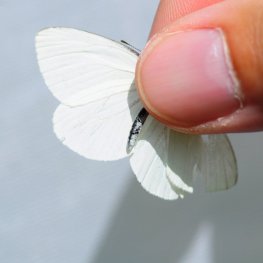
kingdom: Animalia
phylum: Arthropoda
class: Insecta
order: Lepidoptera
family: Pieridae
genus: Pieris
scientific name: Pieris oleracea
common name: Mustard White
